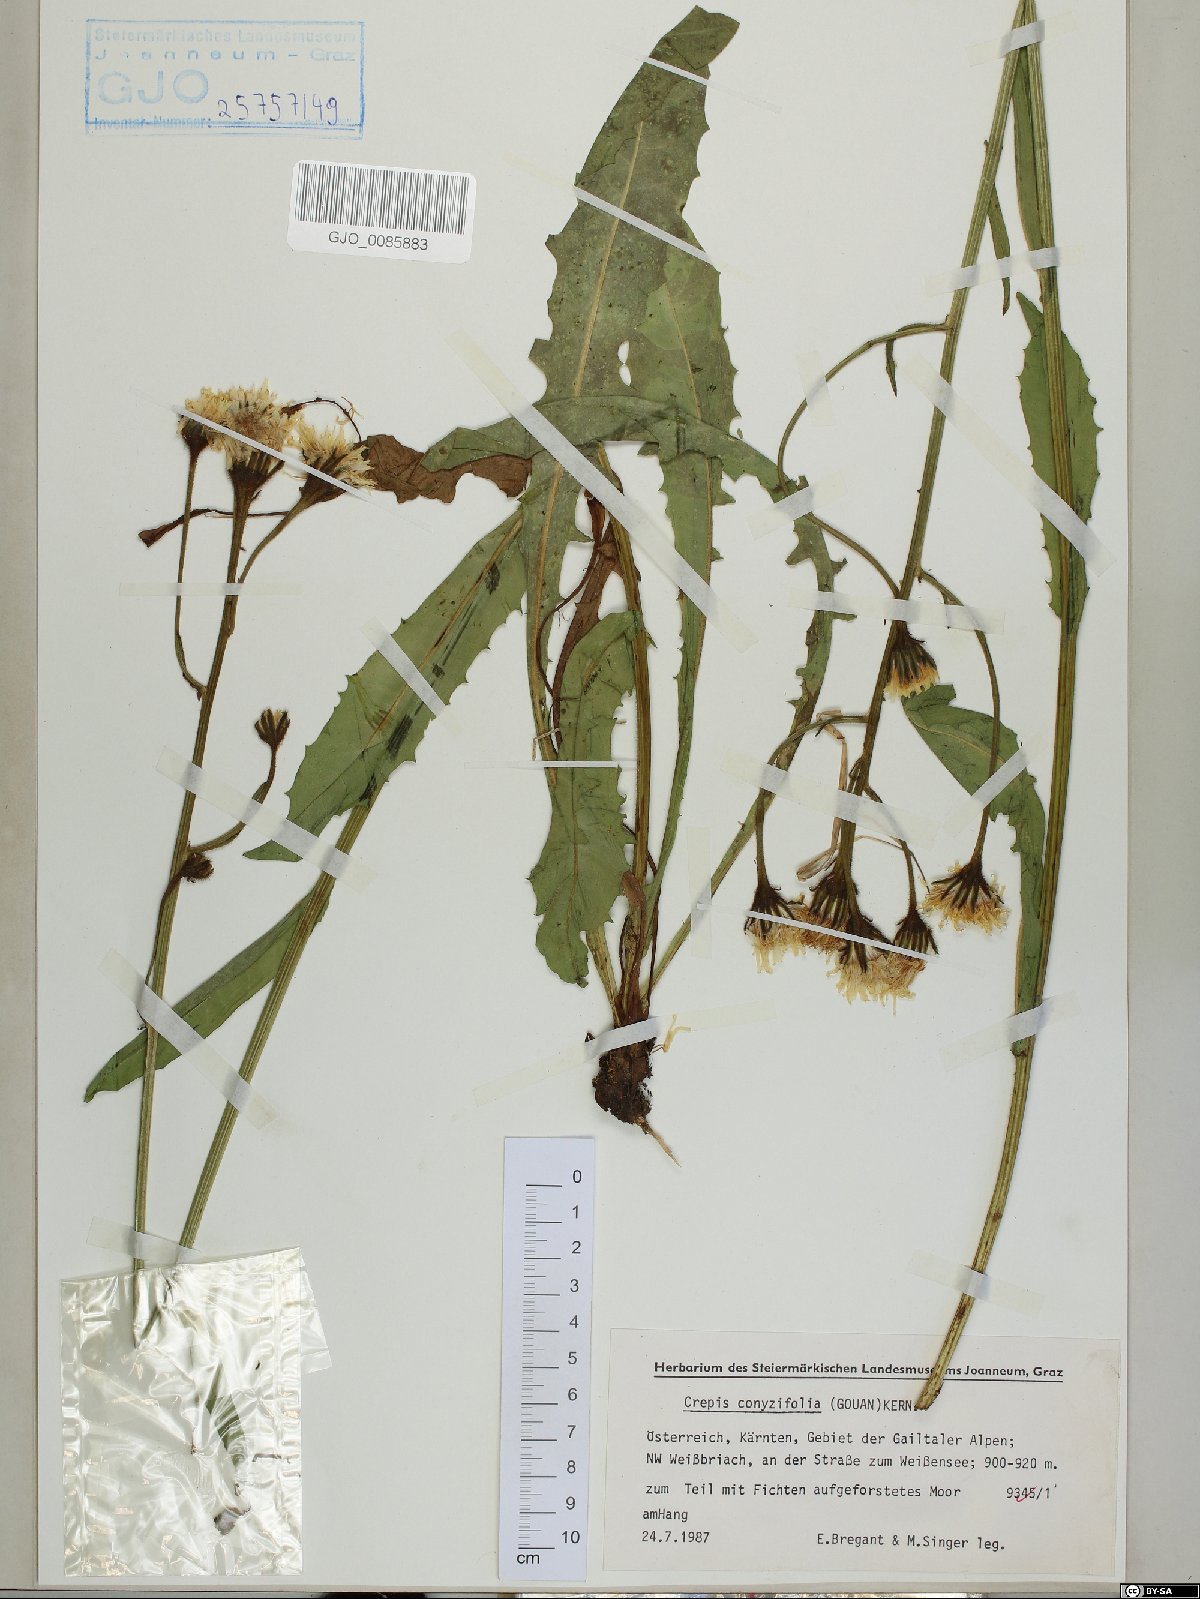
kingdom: Plantae
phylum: Tracheophyta
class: Magnoliopsida
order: Asterales
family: Asteraceae
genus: Crepis
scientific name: Crepis blattarioides
